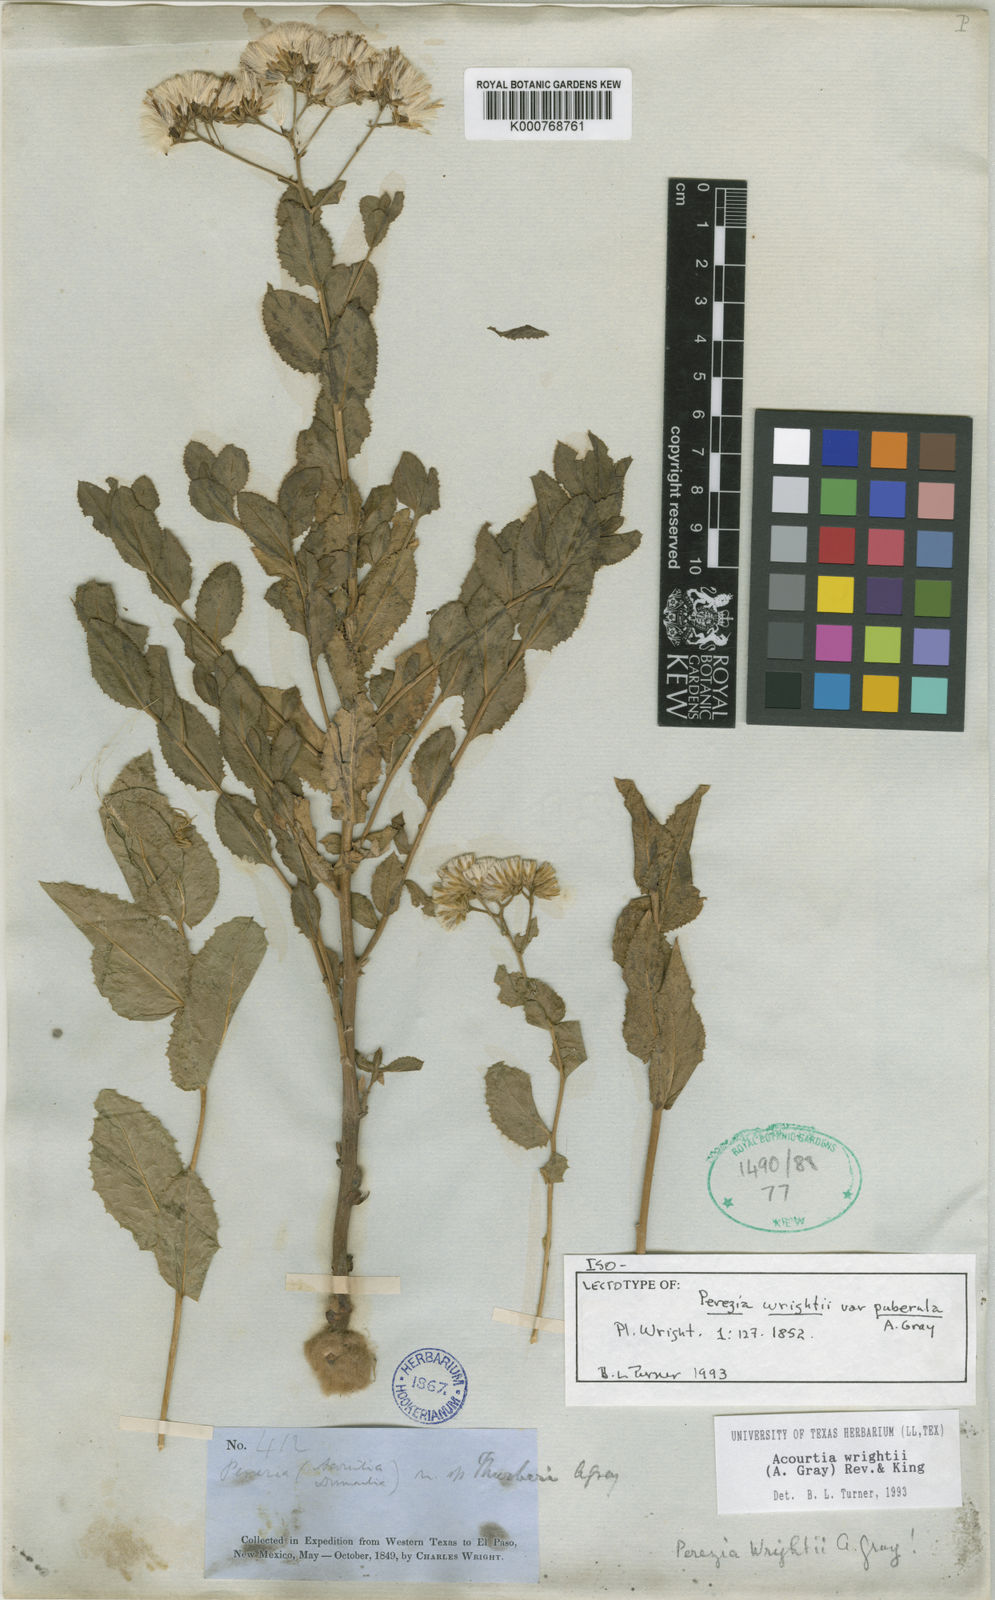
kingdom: Plantae
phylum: Tracheophyta
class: Magnoliopsida
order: Asterales
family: Asteraceae
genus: Acourtia
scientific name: Acourtia wrightii
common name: Brownfoot
